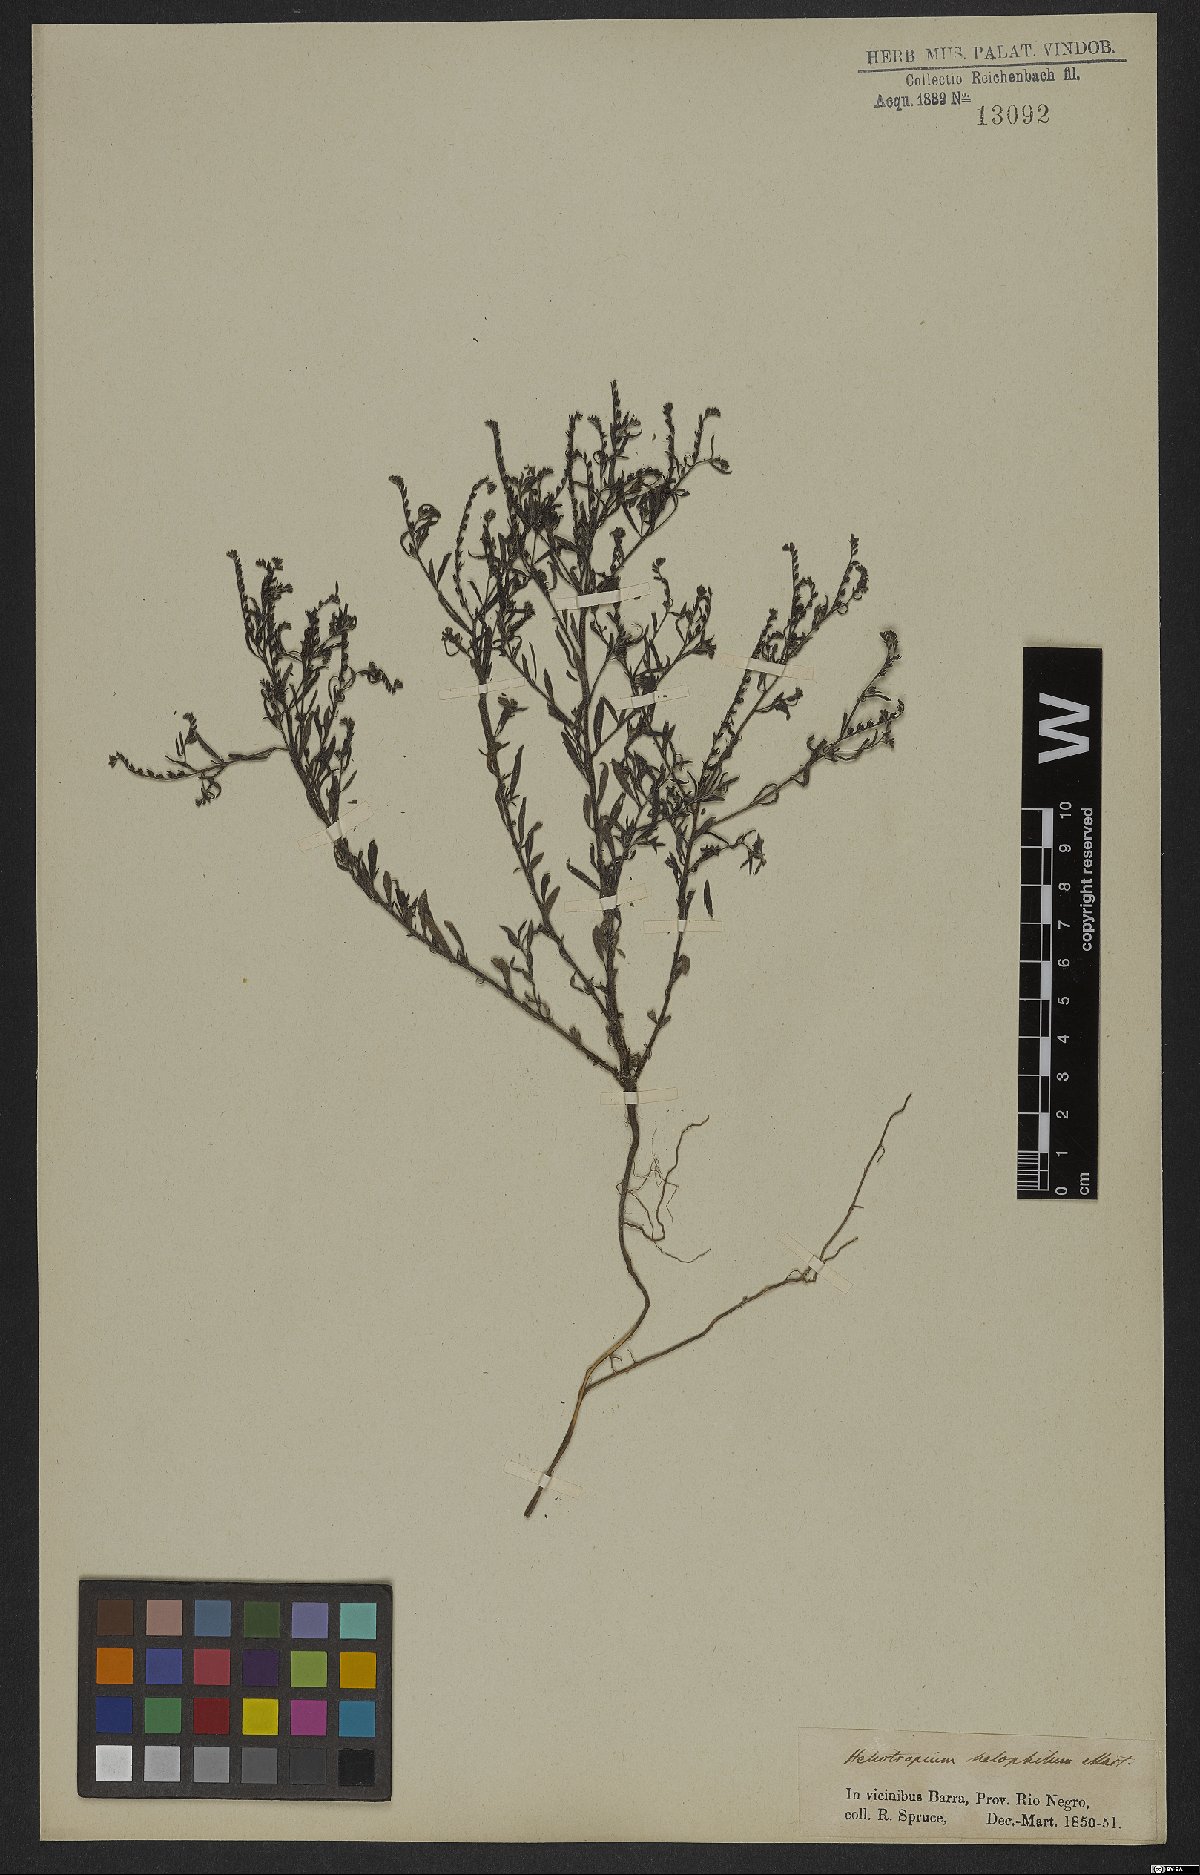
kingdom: Plantae
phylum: Tracheophyta
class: Magnoliopsida
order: Boraginales
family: Heliotropiaceae
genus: Euploca
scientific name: Euploca filiformis
